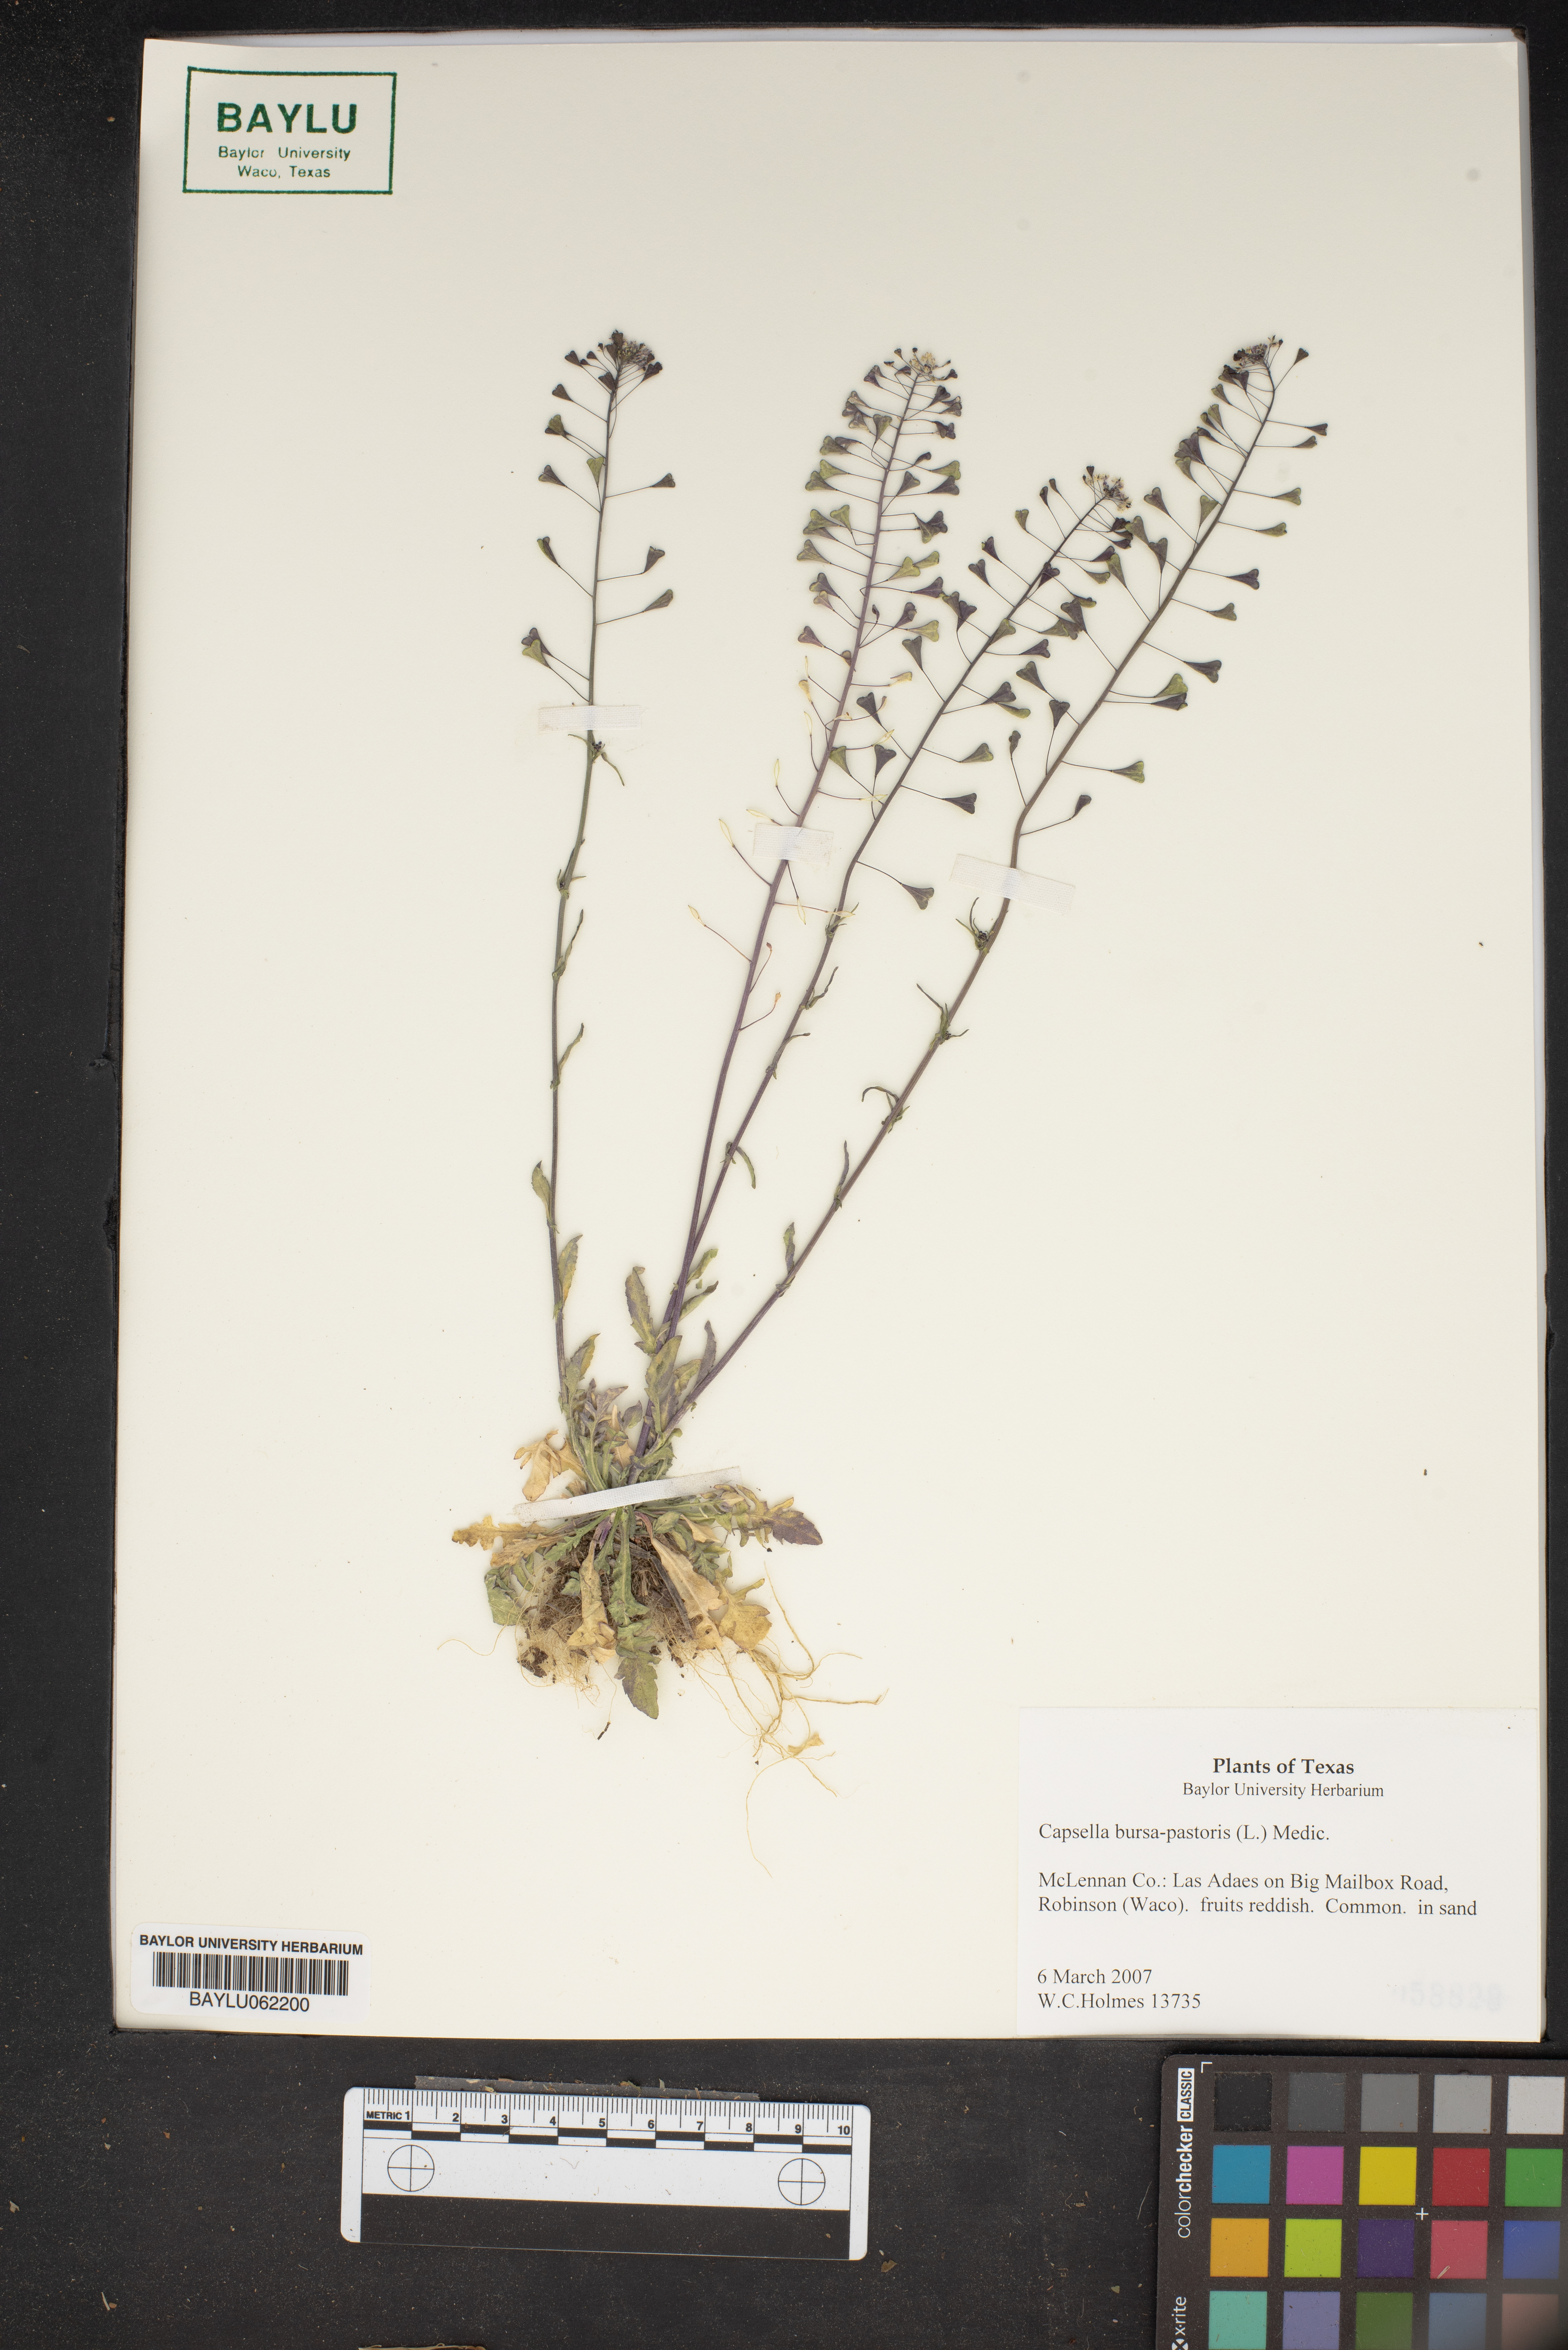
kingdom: Plantae
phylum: Tracheophyta
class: Magnoliopsida
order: Brassicales
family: Brassicaceae
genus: Capsella
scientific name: Capsella bursa-pastoris
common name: Shepherd's purse
